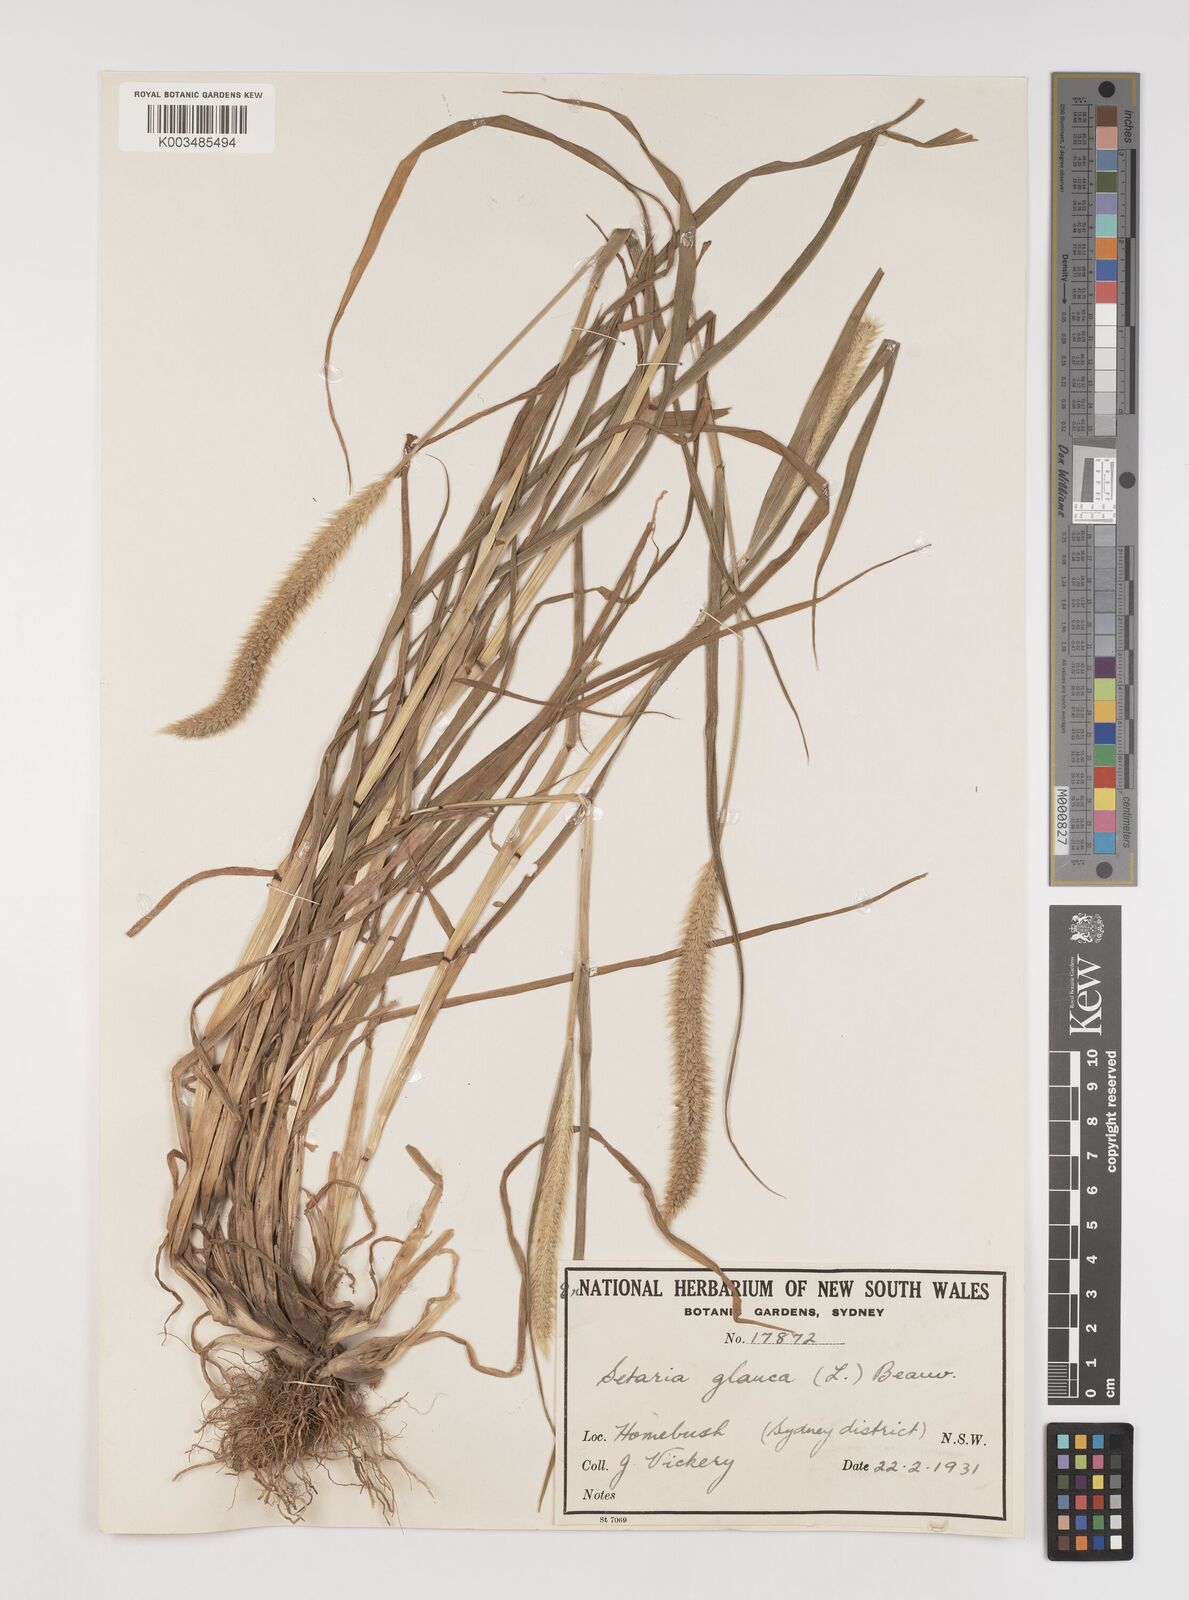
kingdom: Plantae
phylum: Tracheophyta
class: Liliopsida
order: Poales
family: Poaceae
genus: Setaria
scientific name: Setaria pumila
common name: Yellow bristle-grass
